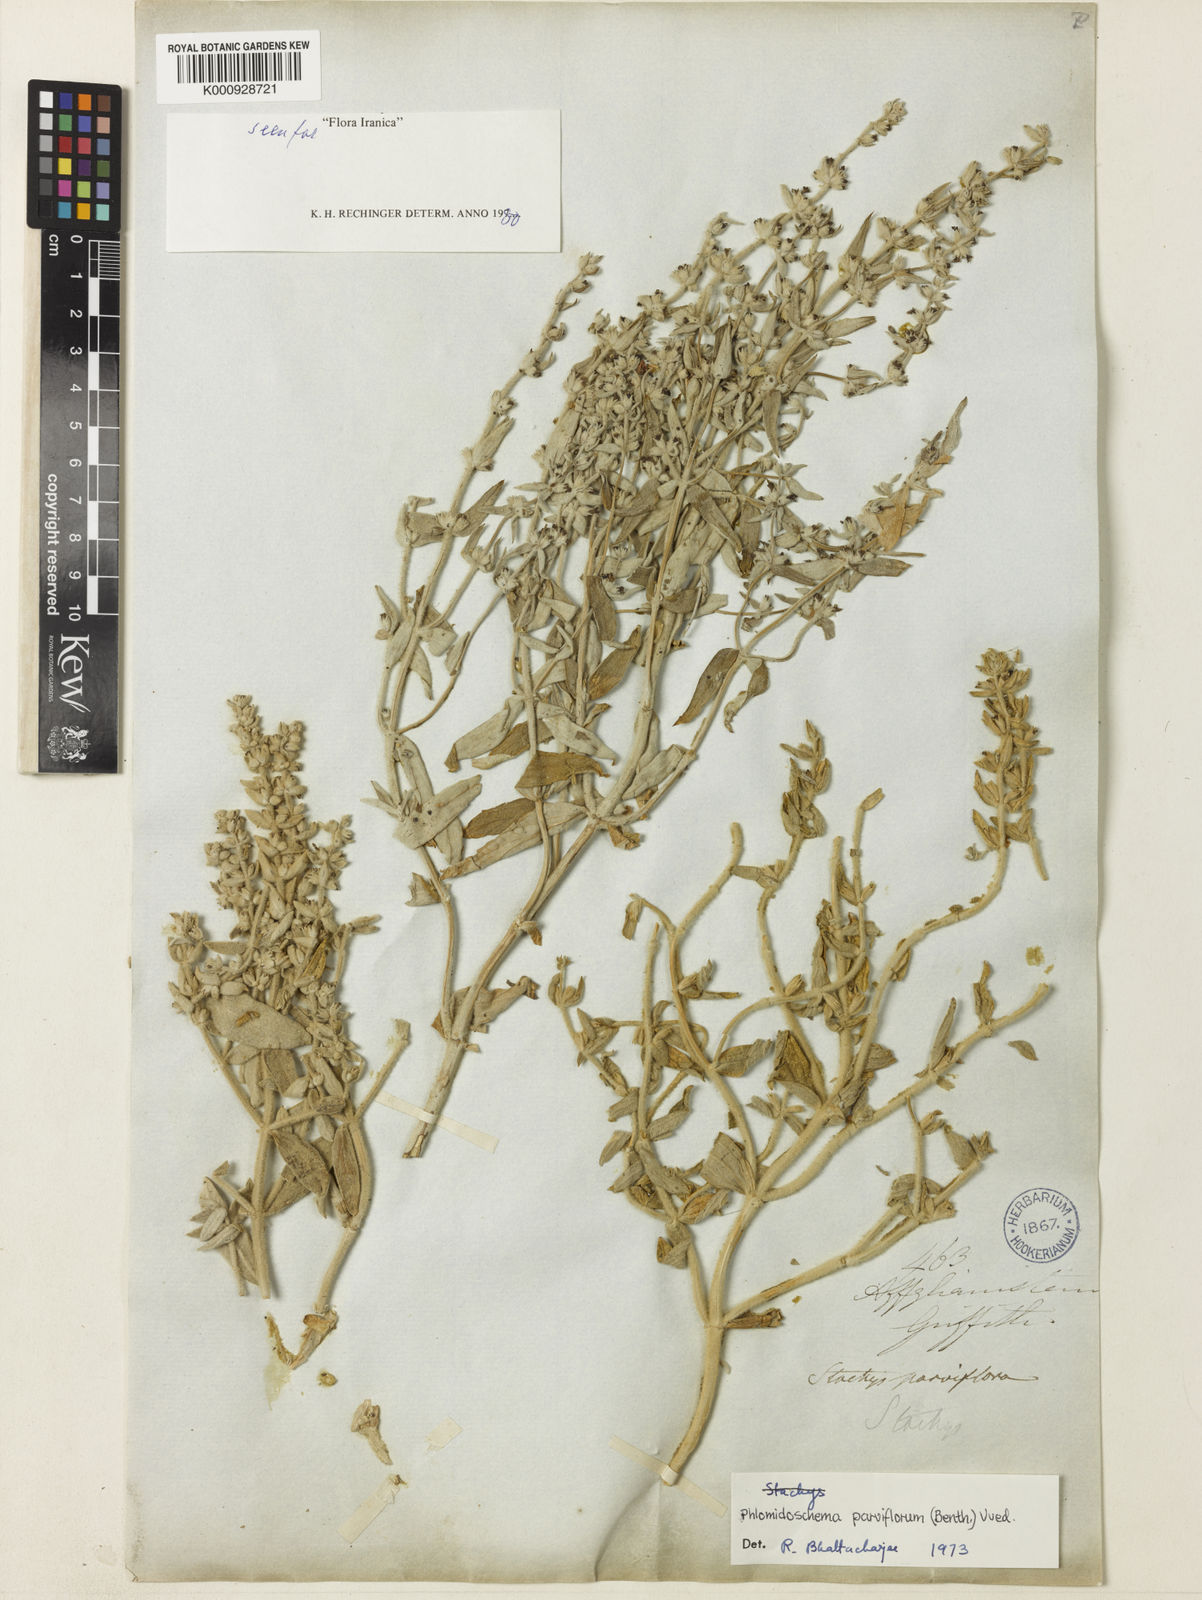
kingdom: Plantae
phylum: Tracheophyta
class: Magnoliopsida
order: Lamiales
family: Lamiaceae
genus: Phlomidoschema
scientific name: Phlomidoschema parviflorum
